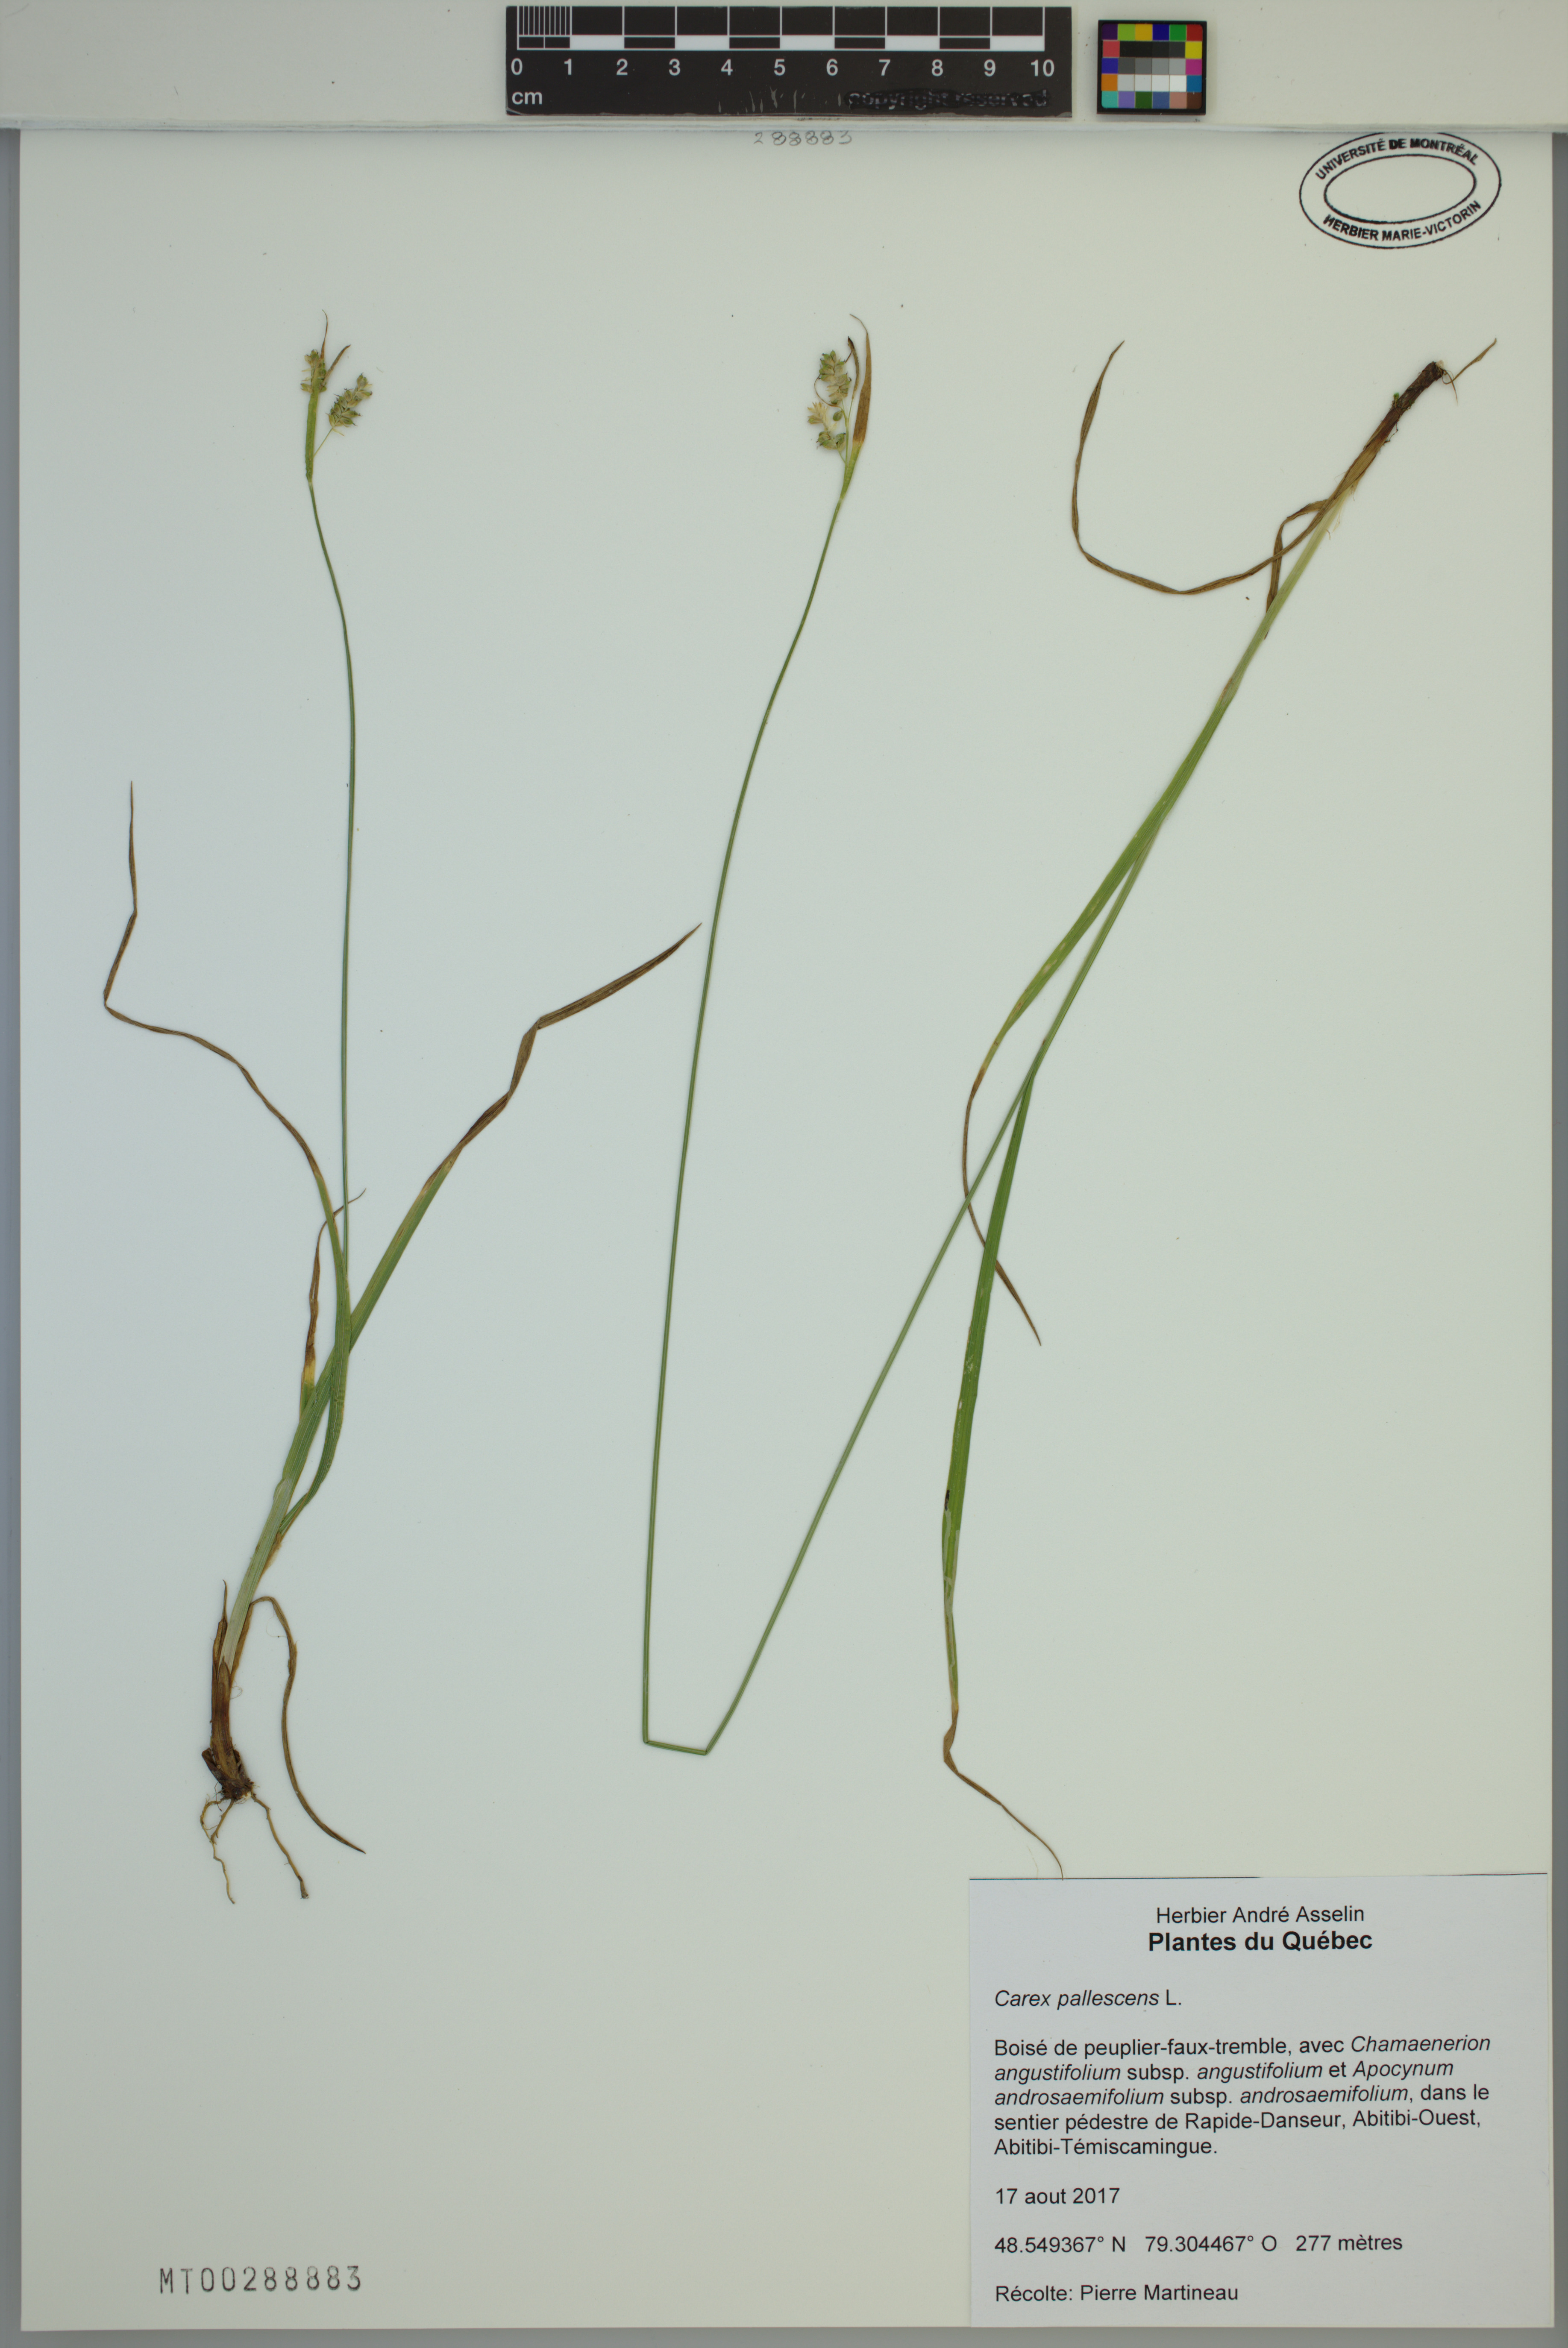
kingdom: Plantae
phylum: Tracheophyta
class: Liliopsida
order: Poales
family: Cyperaceae
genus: Carex
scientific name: Carex pallescens
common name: Pale sedge
